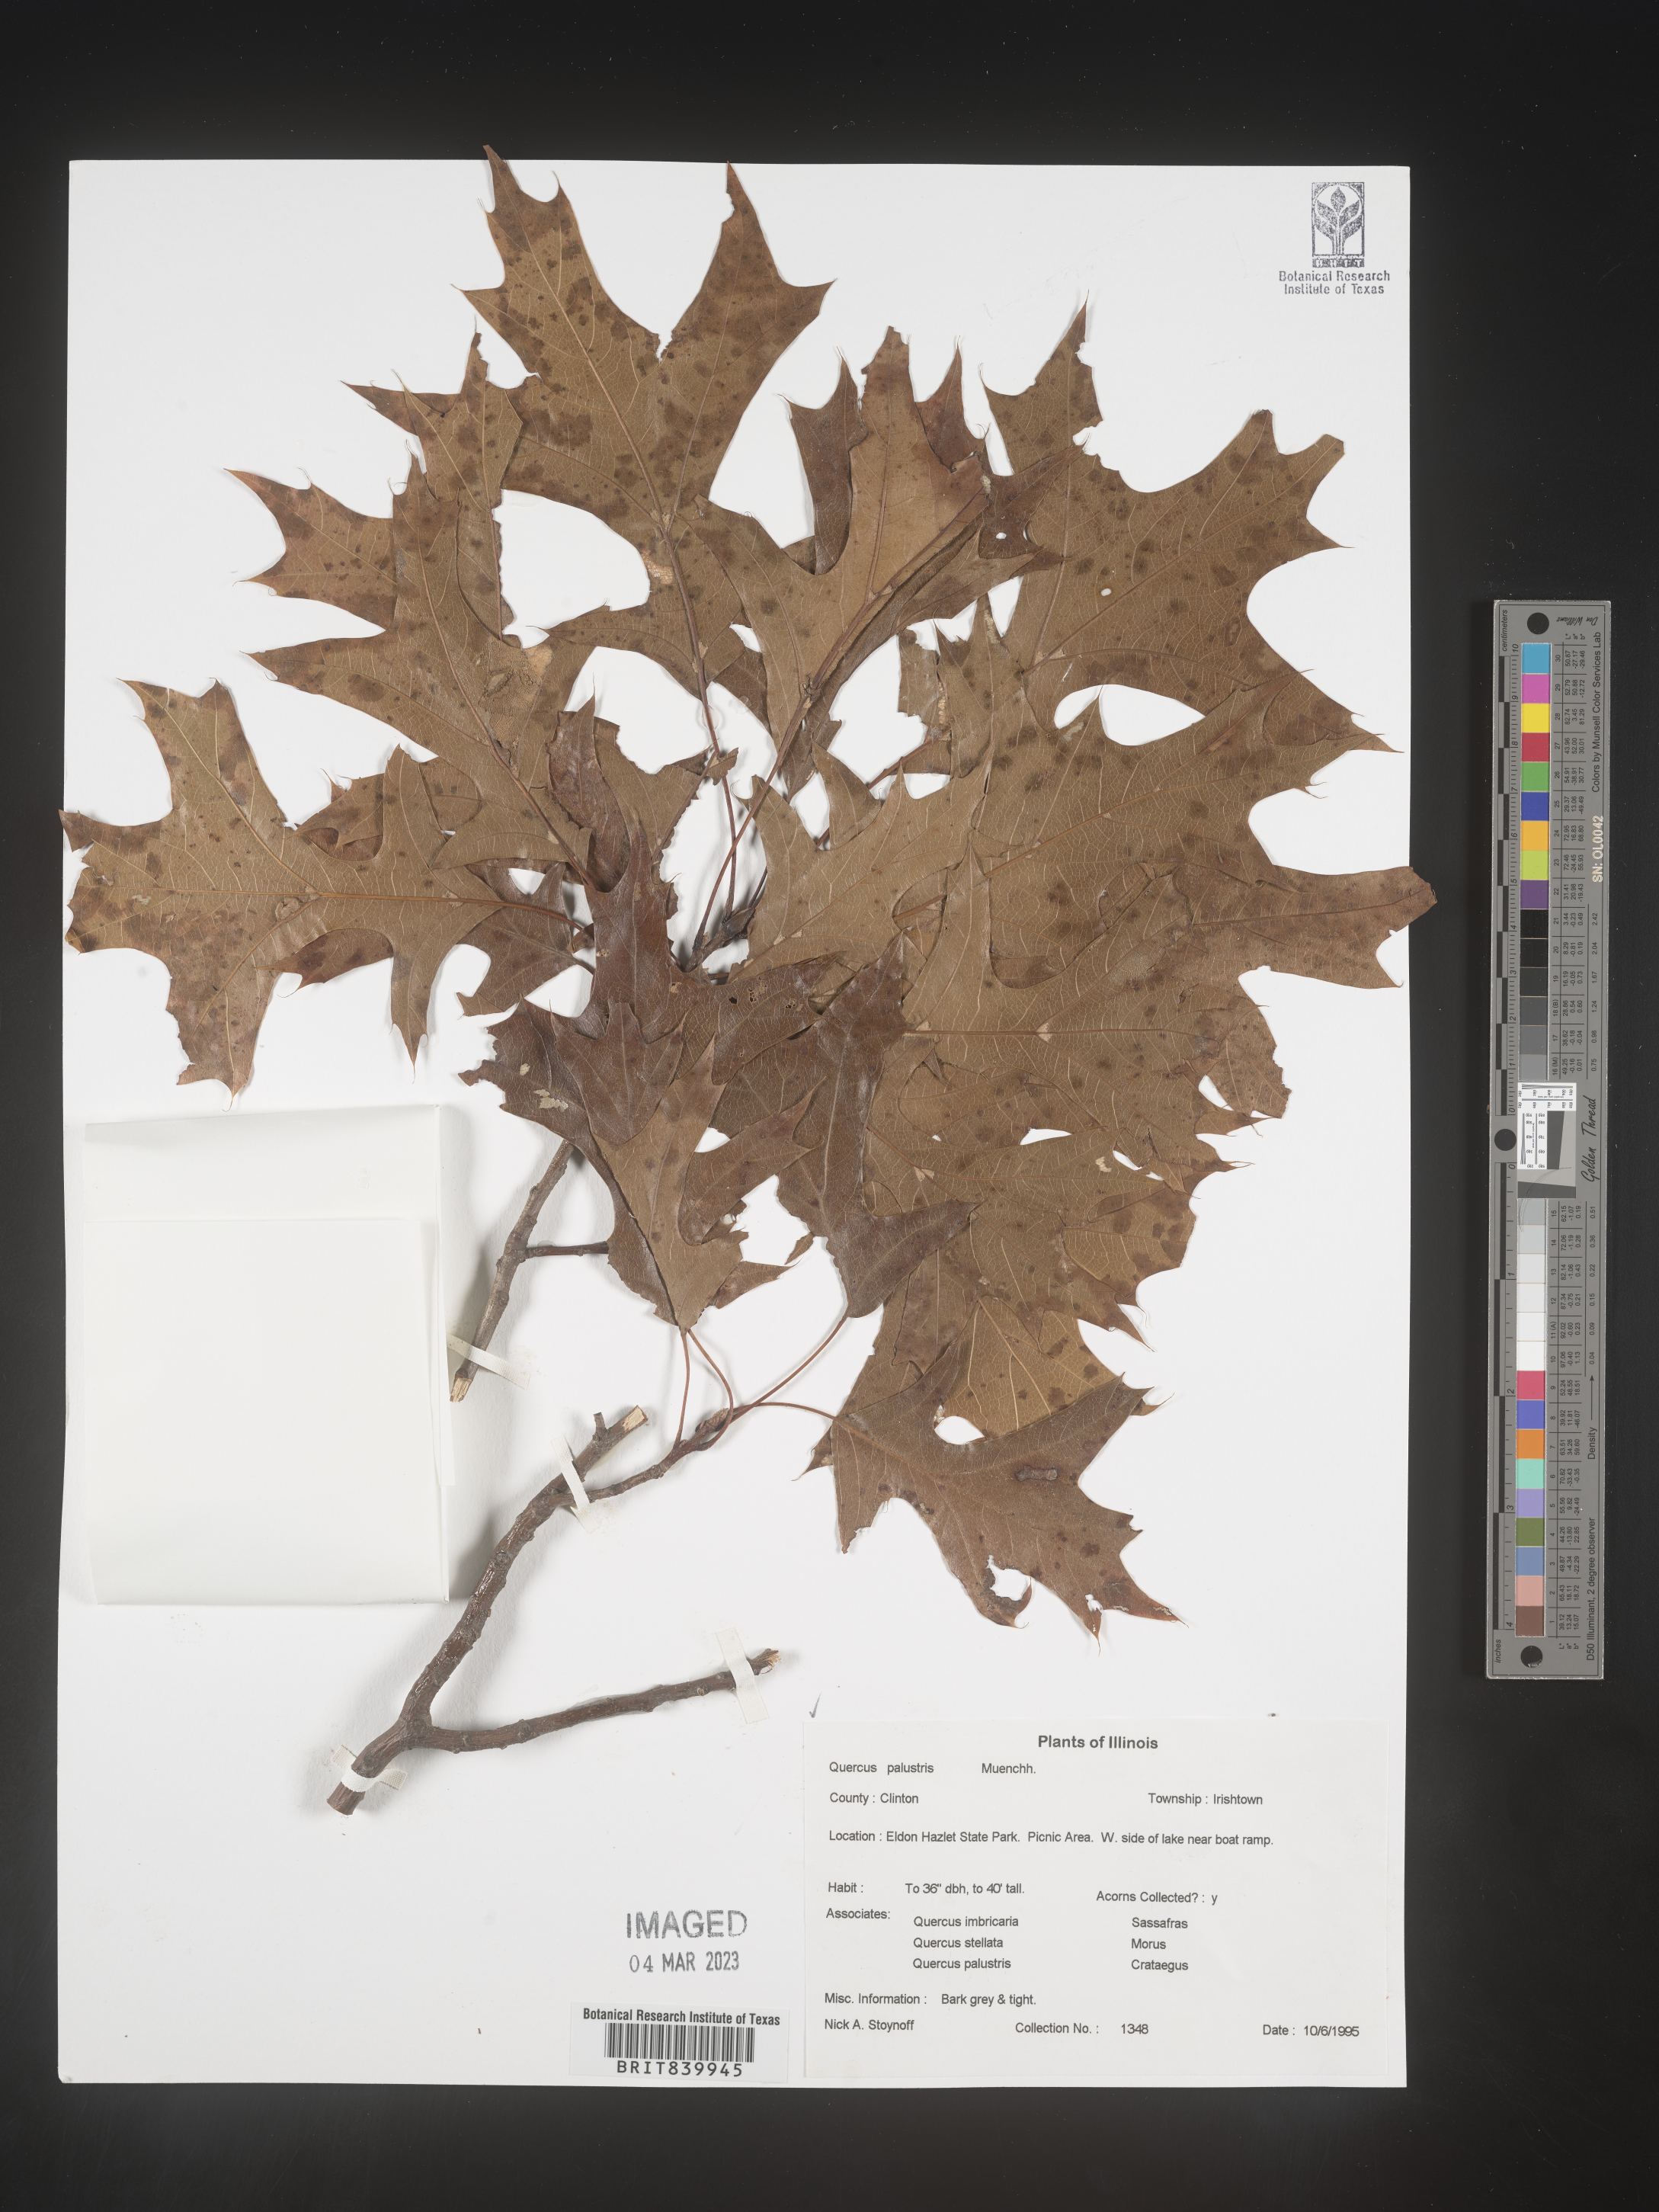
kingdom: Plantae
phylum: Tracheophyta
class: Magnoliopsida
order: Fagales
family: Fagaceae
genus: Quercus
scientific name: Quercus palustris
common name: Pin oak
